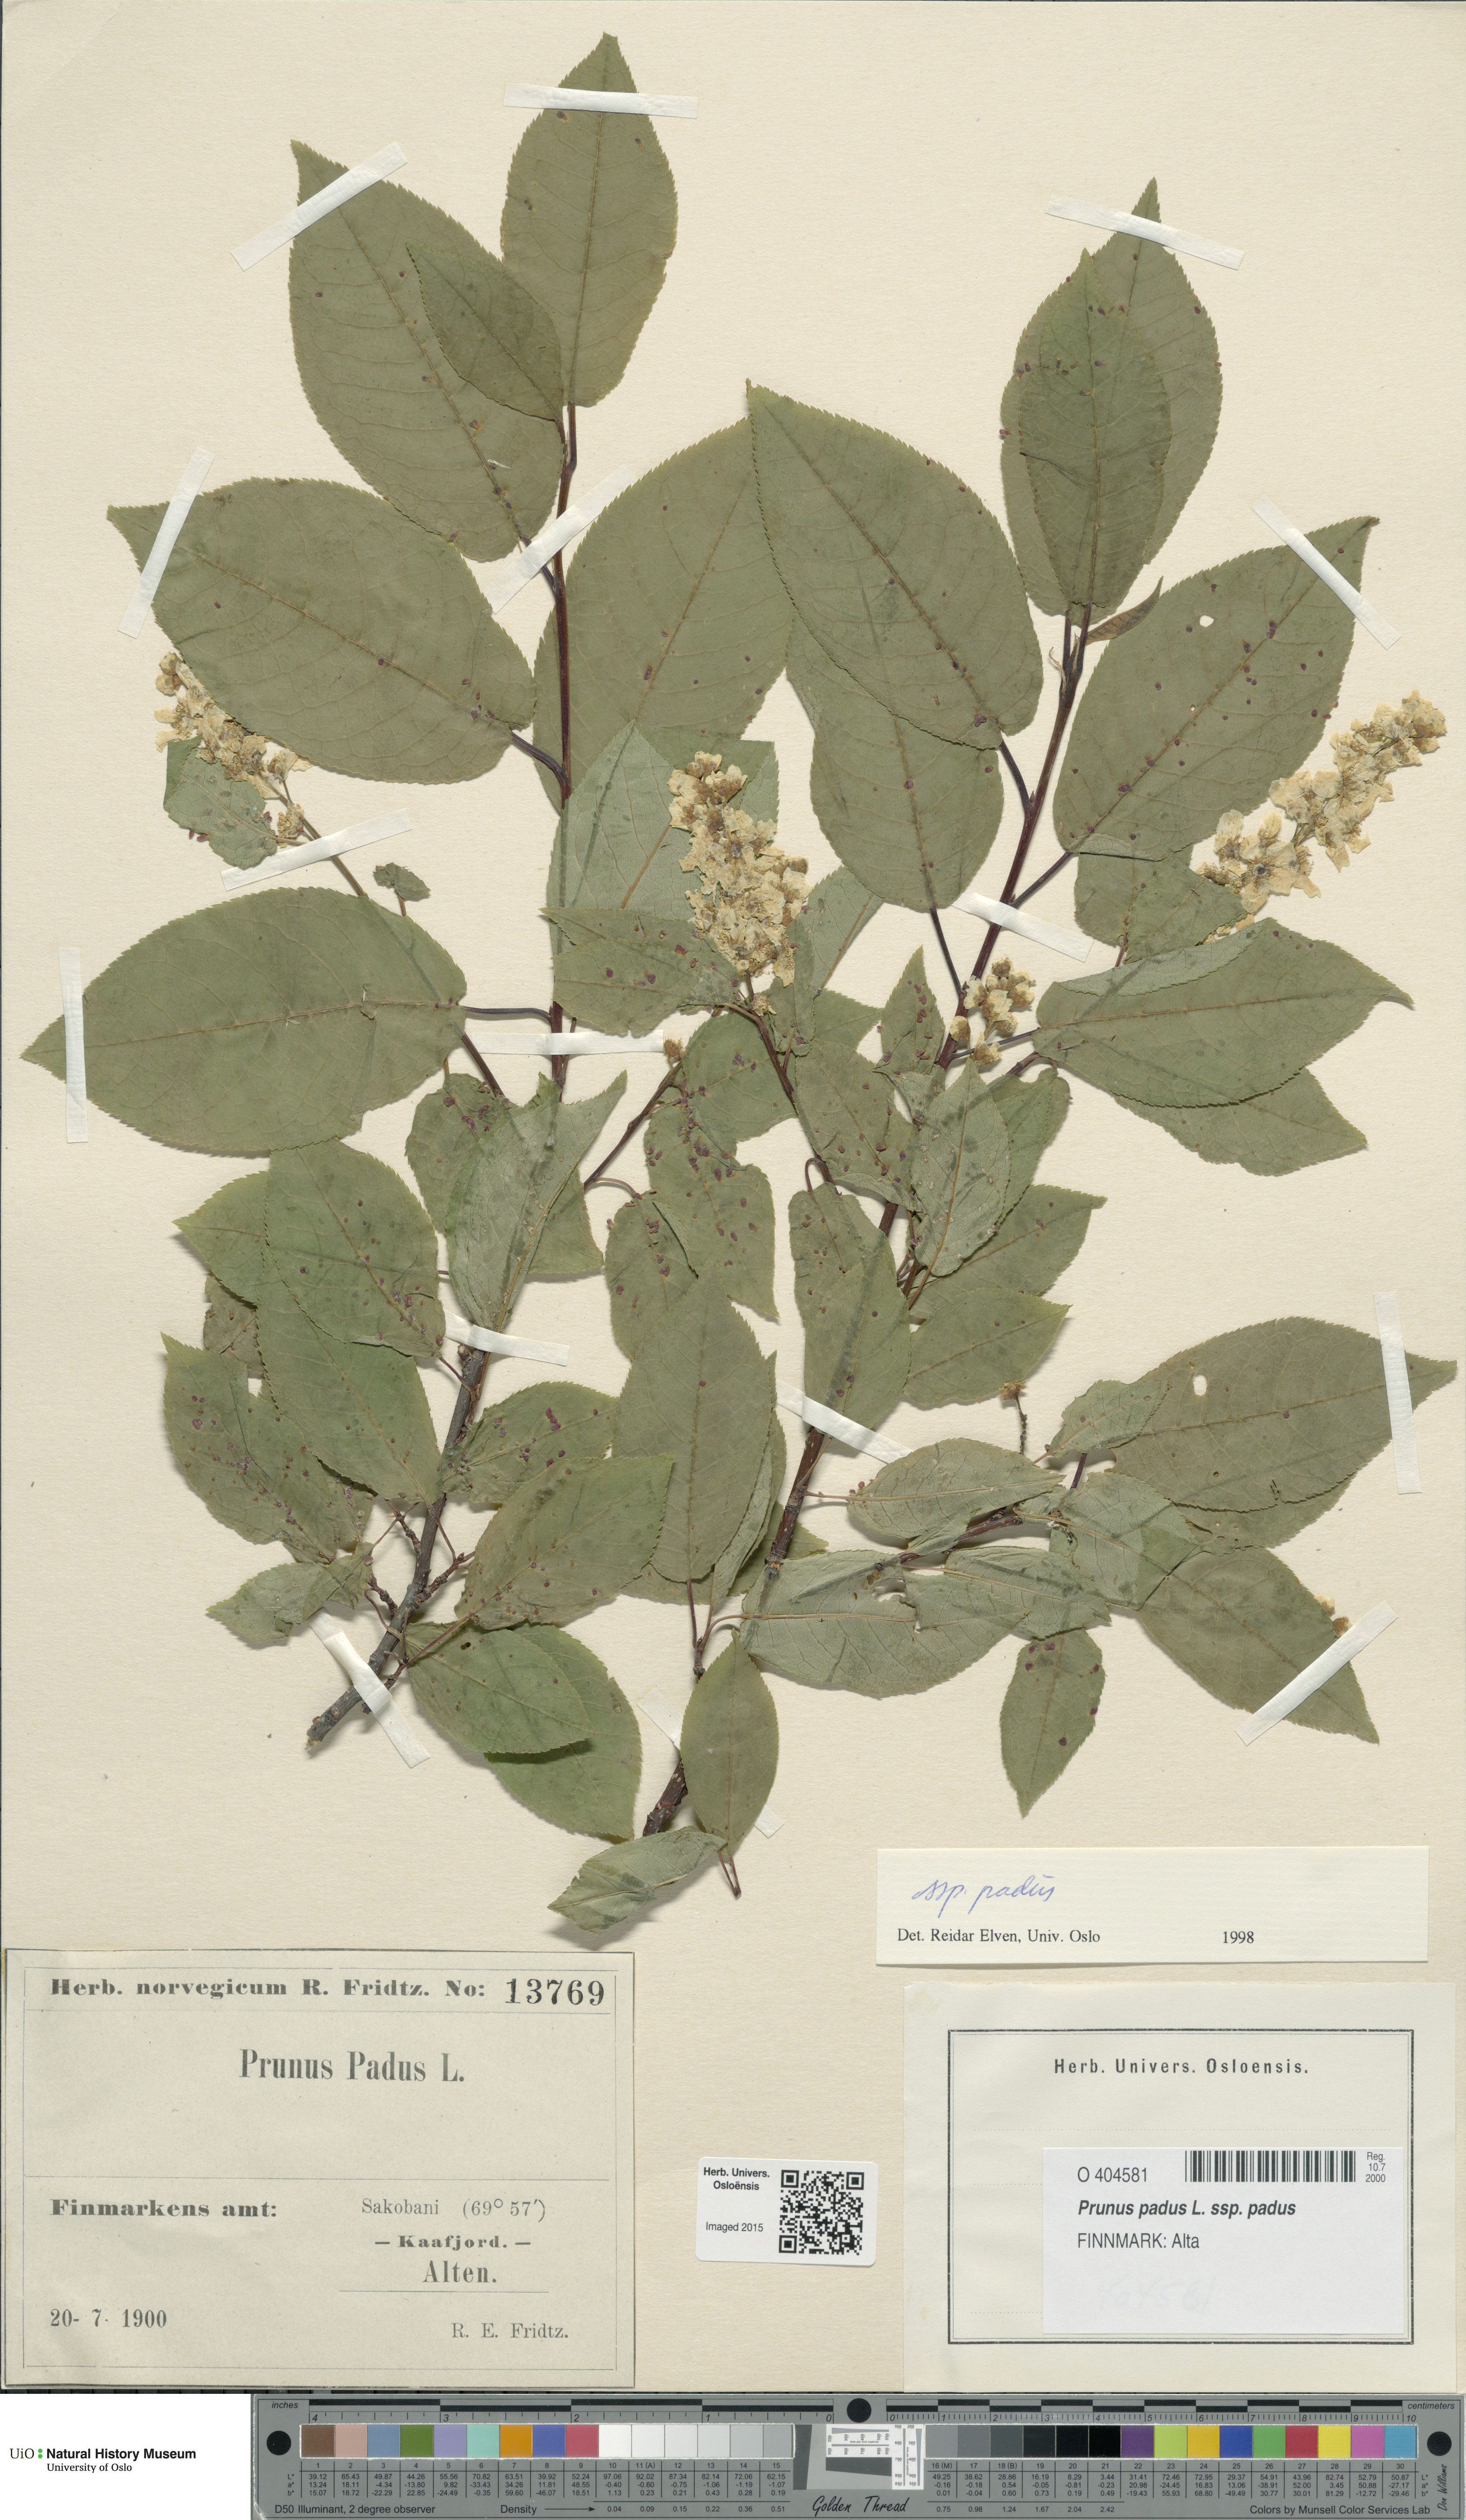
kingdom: Plantae
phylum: Tracheophyta
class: Magnoliopsida
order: Rosales
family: Rosaceae
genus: Prunus
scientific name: Prunus padus
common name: Bird cherry
